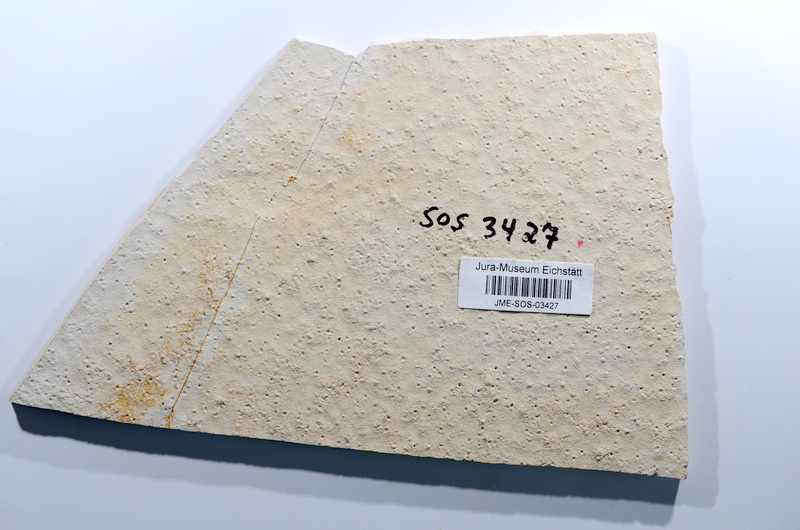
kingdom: Animalia
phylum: Chordata
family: Ascalaboidae
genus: Ascalabos
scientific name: Ascalabos voithii
